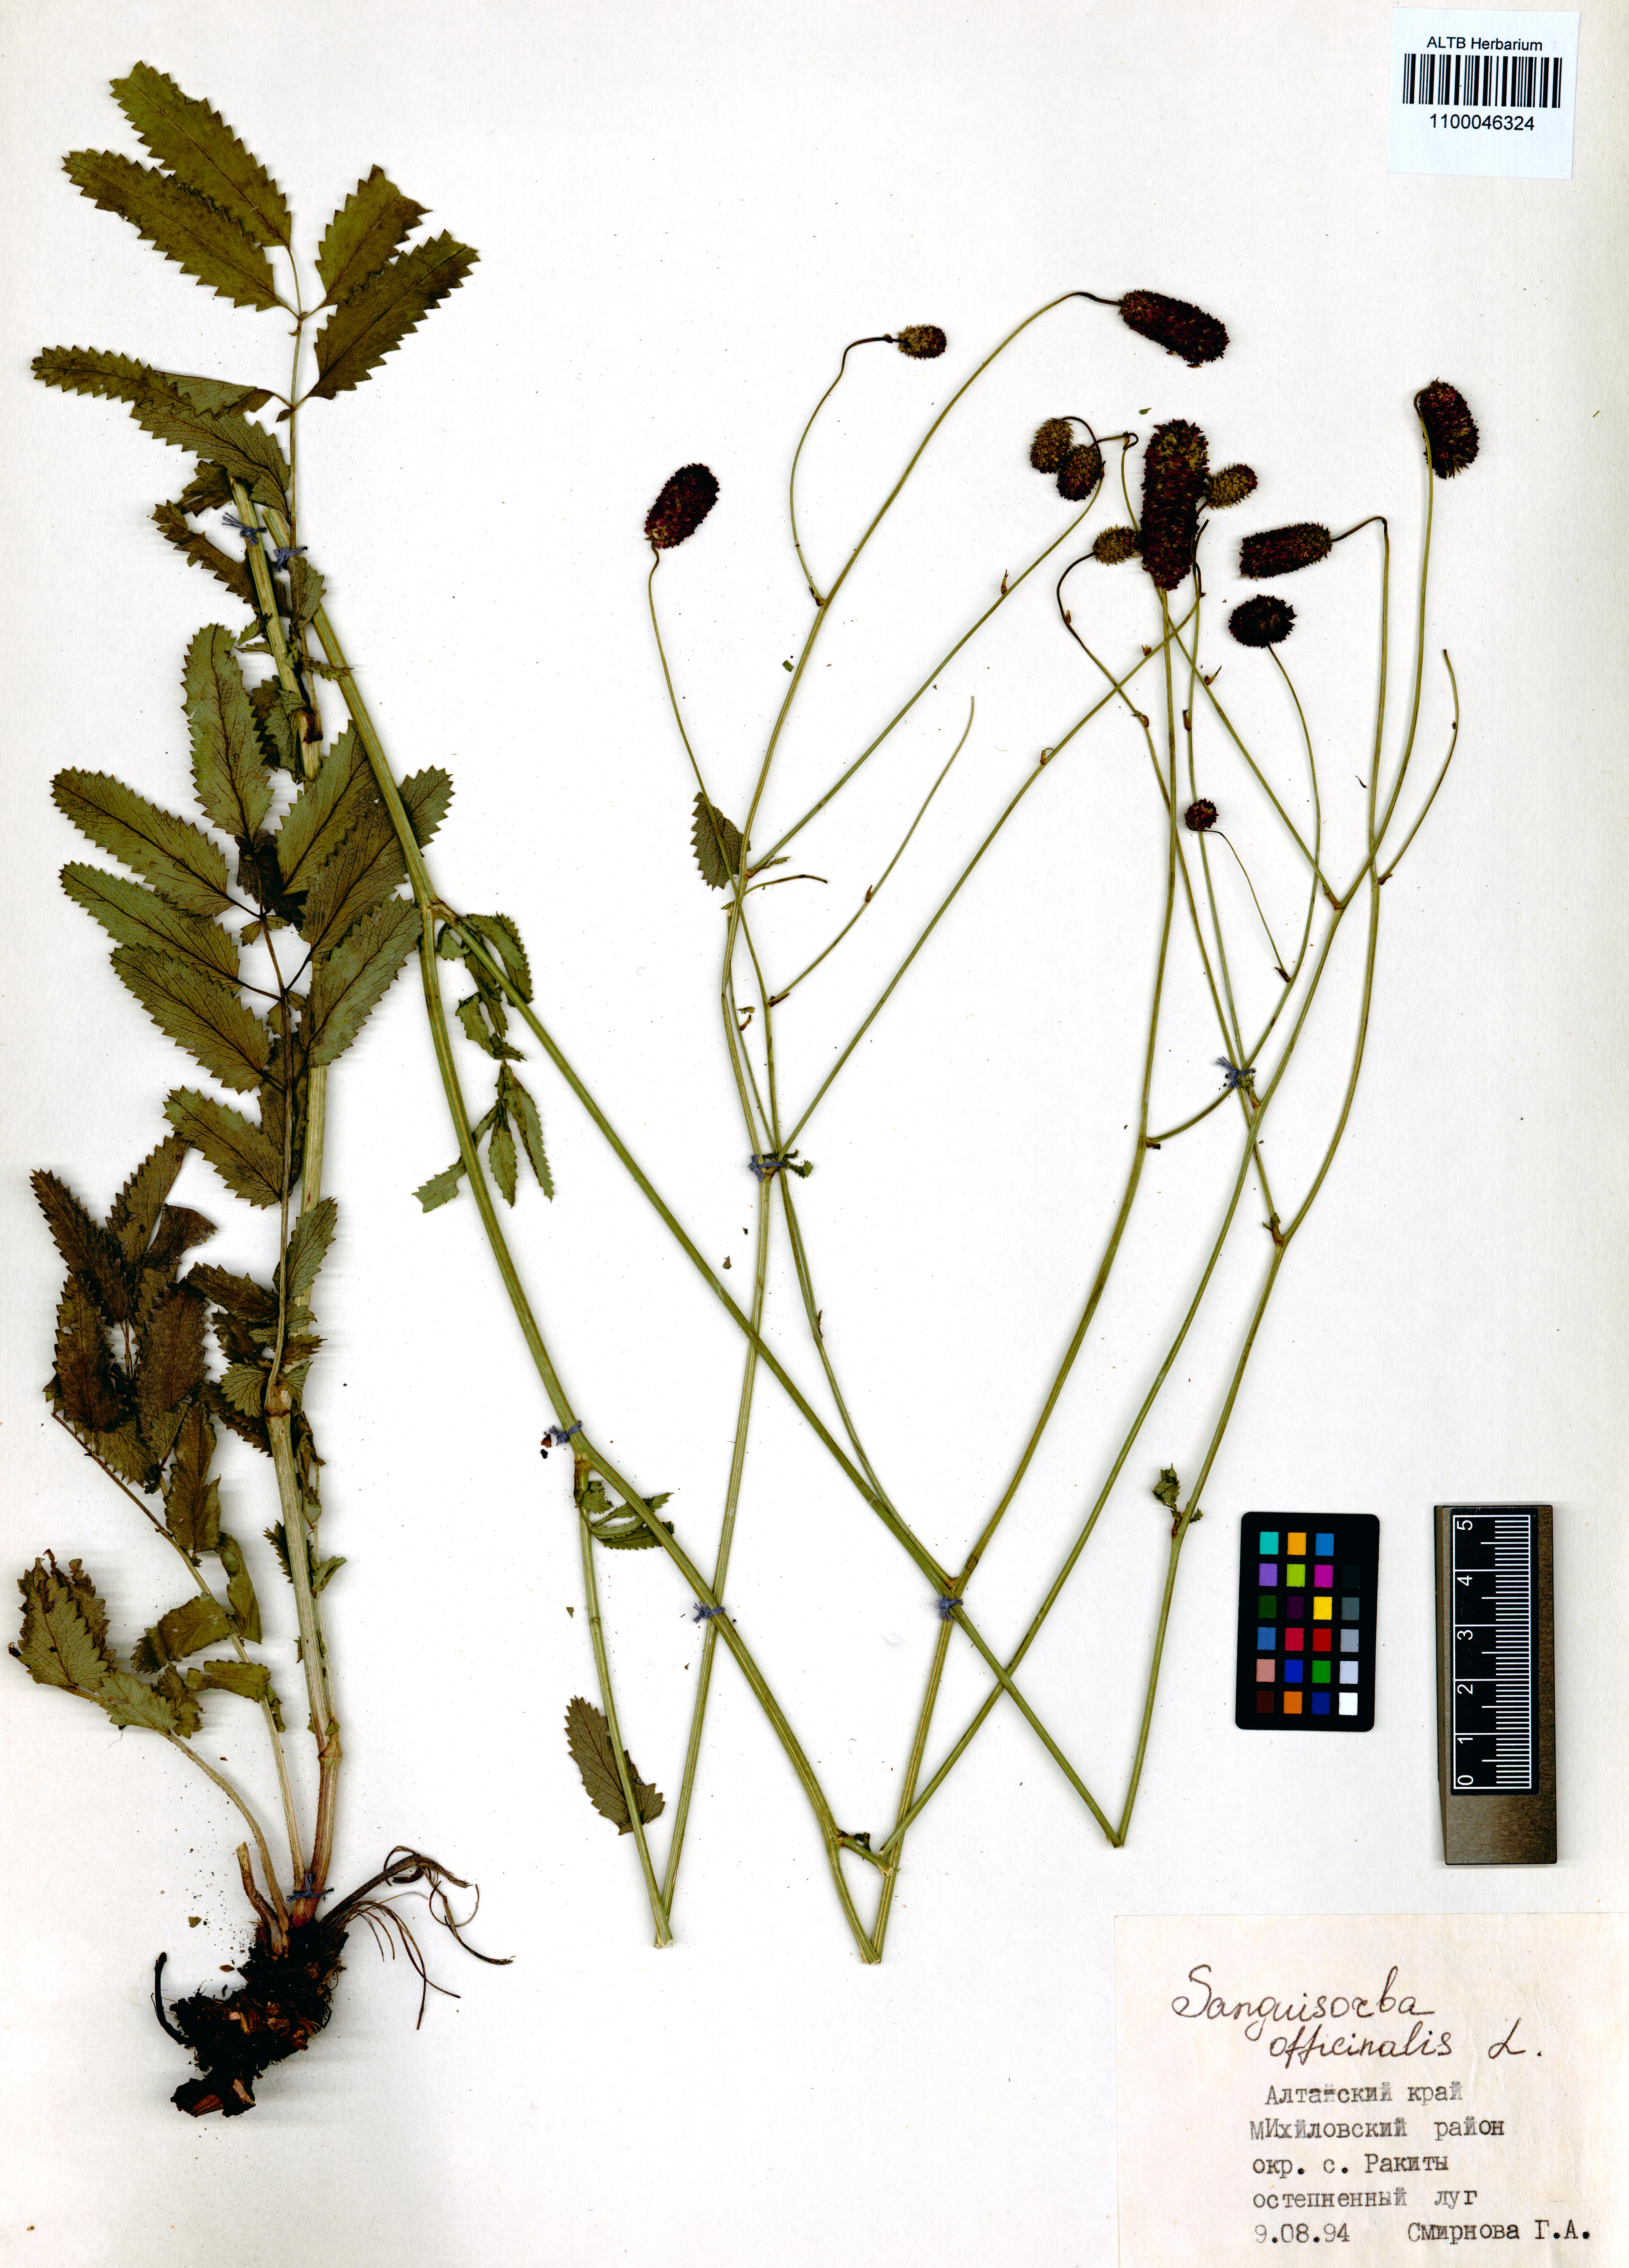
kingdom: Plantae
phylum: Tracheophyta
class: Magnoliopsida
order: Rosales
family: Rosaceae
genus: Sanguisorba
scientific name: Sanguisorba officinalis
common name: Great burnet
